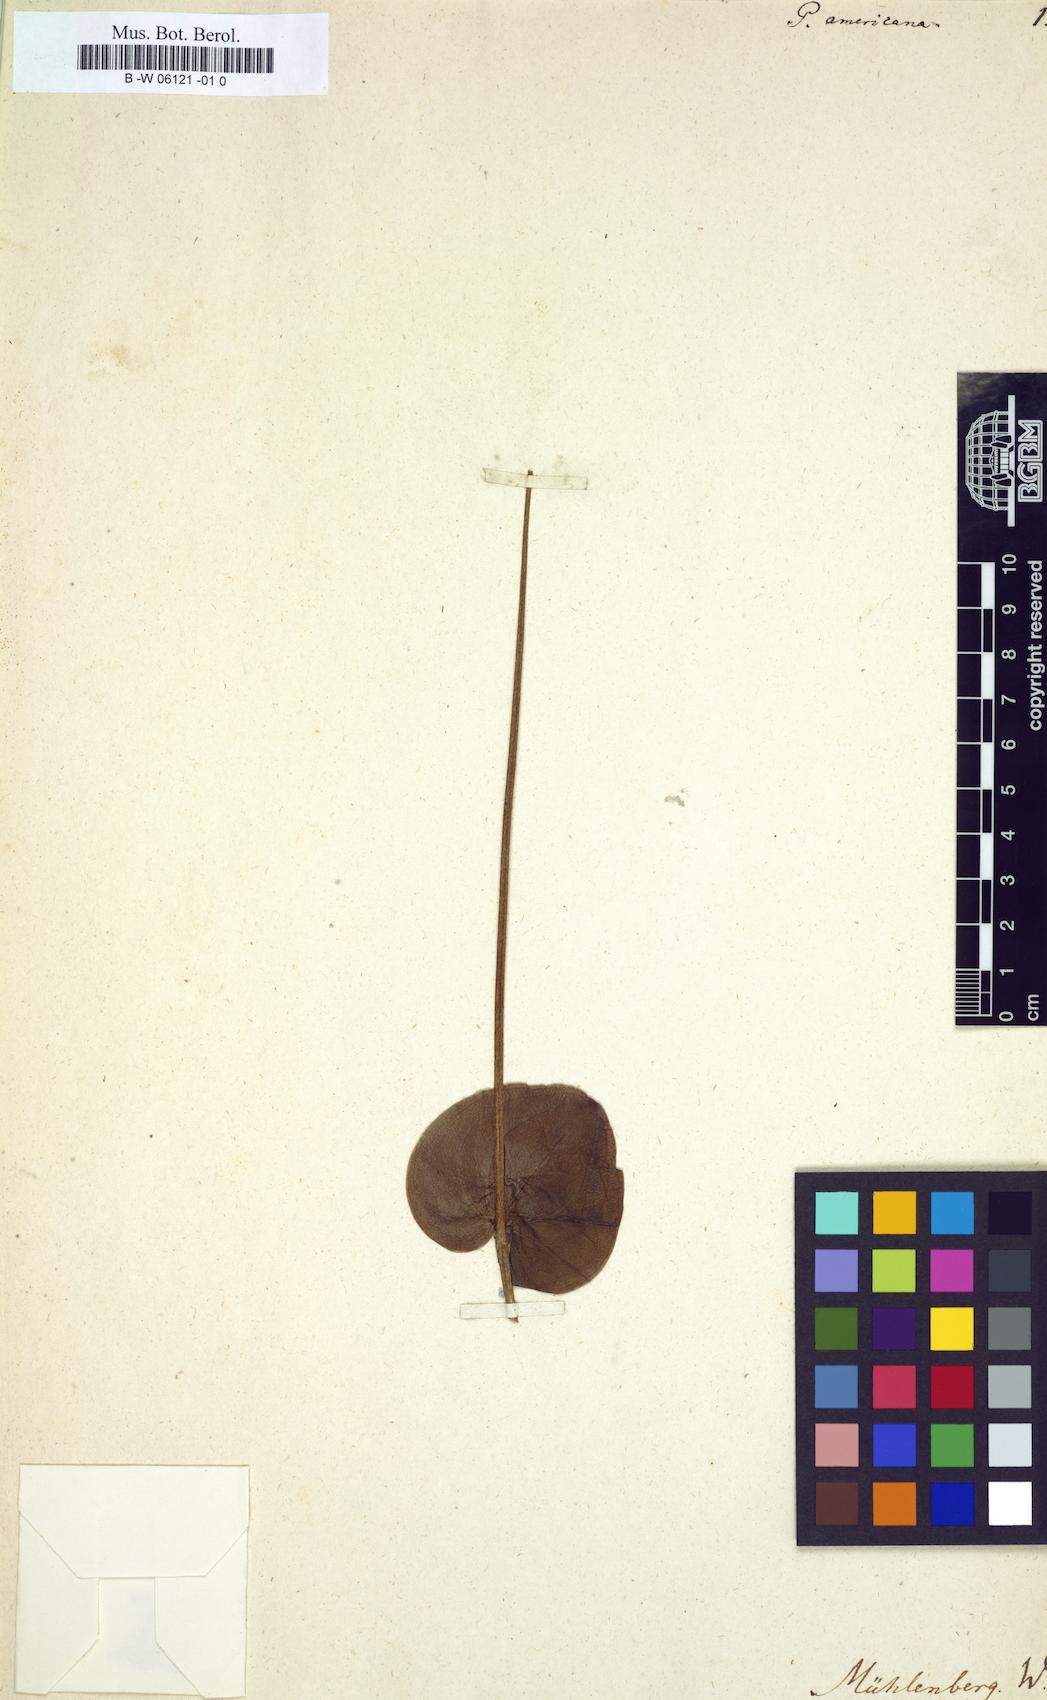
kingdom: Plantae
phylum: Tracheophyta
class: Magnoliopsida
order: Celastrales
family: Parnassiaceae
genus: Parnassia
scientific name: Parnassia caroliniana
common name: Carolina grass of parnassus
